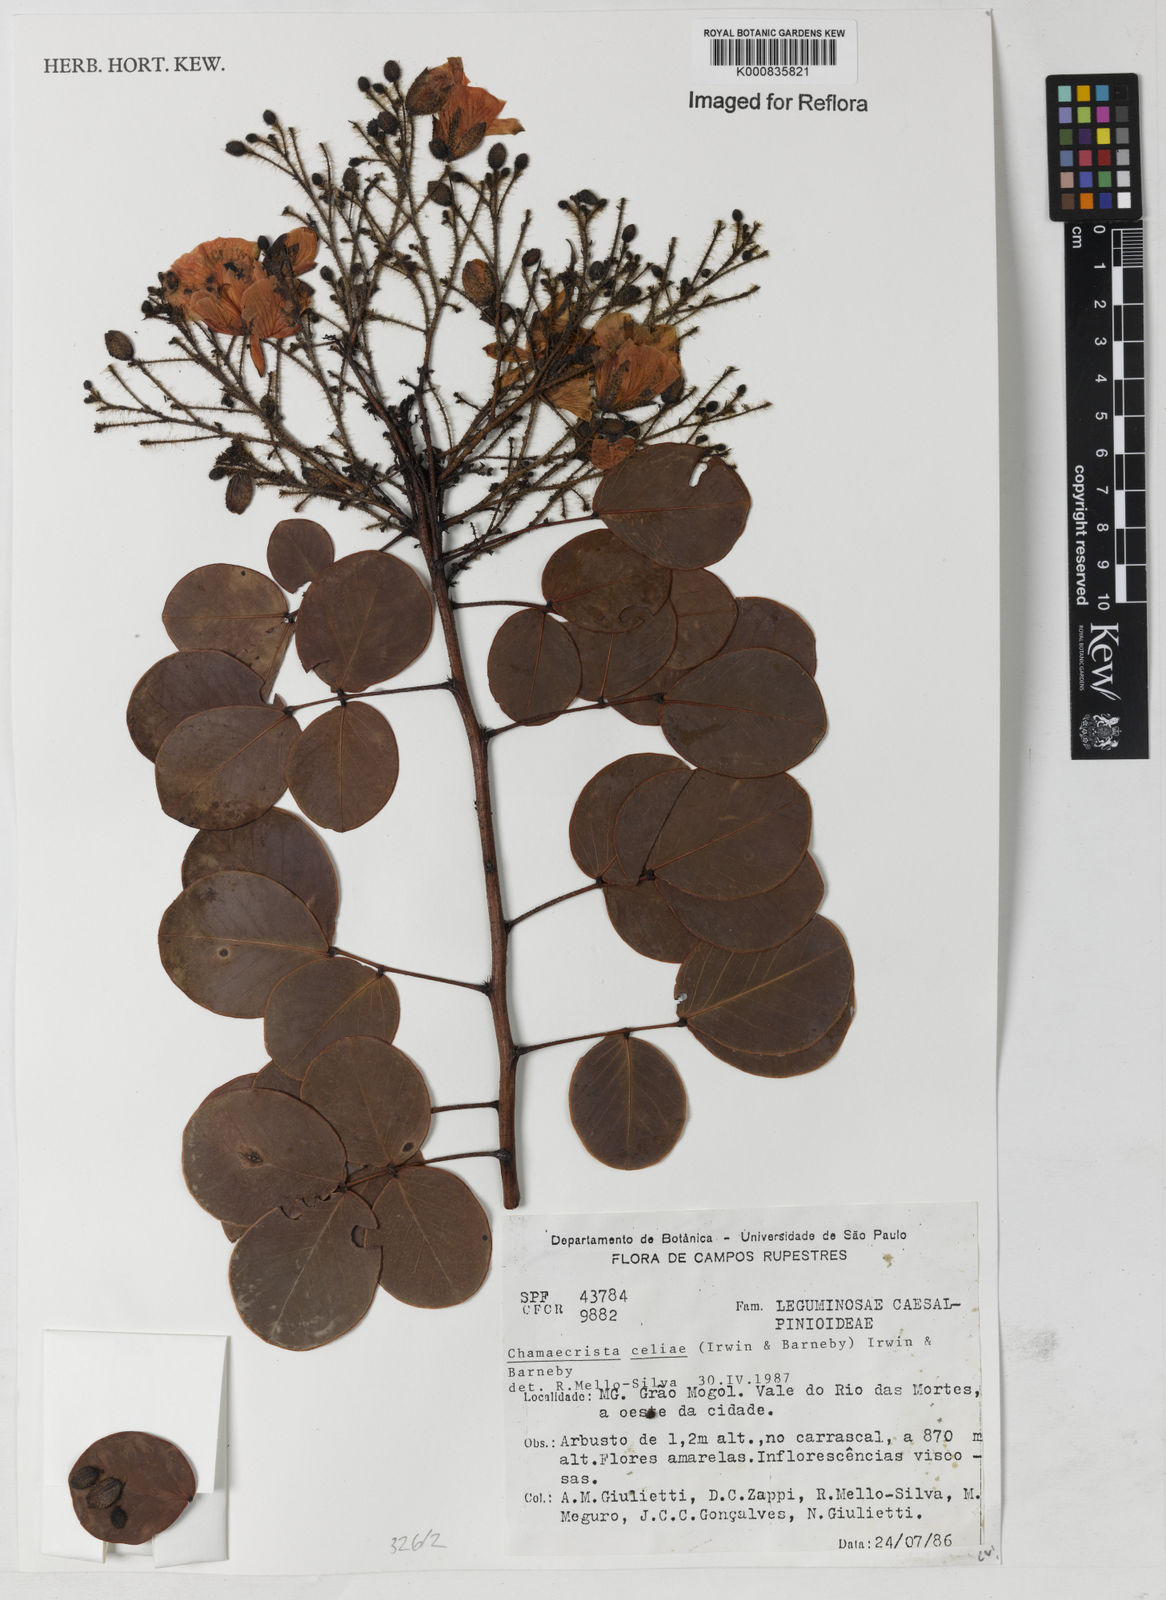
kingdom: Plantae
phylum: Tracheophyta
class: Magnoliopsida
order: Fabales
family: Fabaceae
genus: Chamaecrista
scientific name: Chamaecrista celiae
